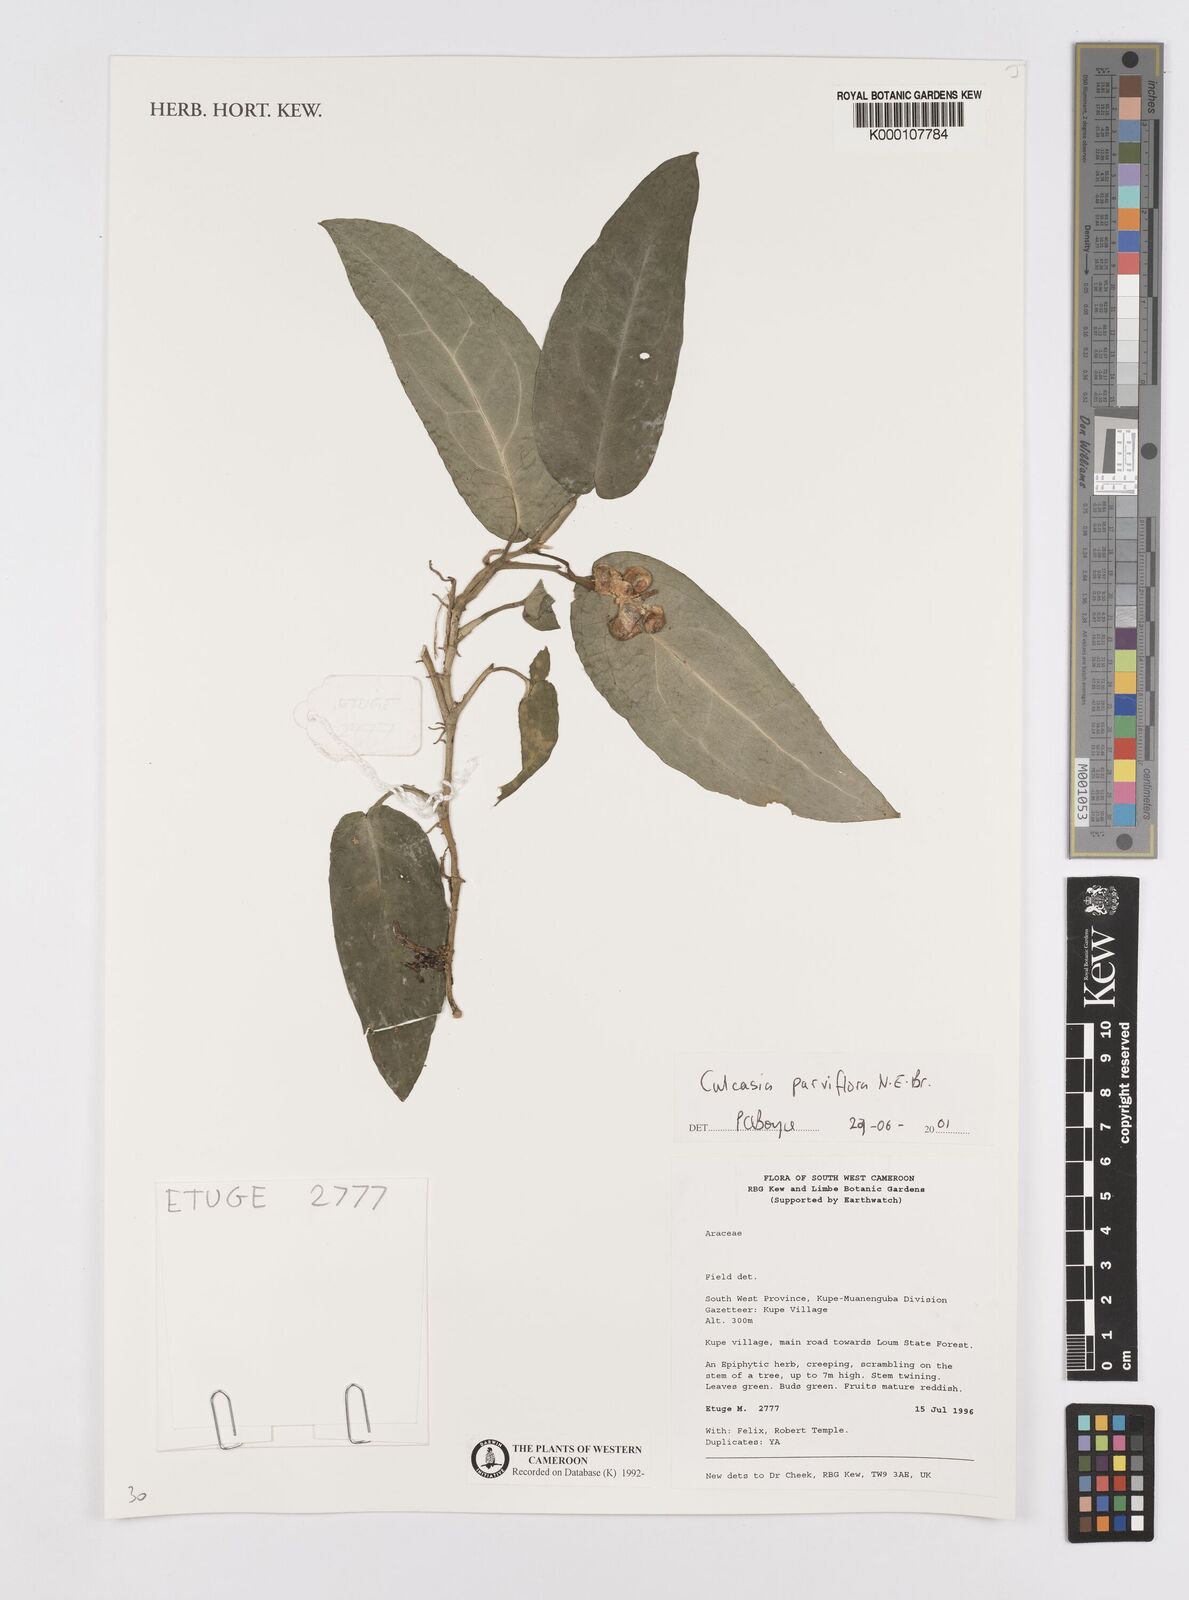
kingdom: Plantae
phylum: Tracheophyta
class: Liliopsida
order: Alismatales
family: Araceae
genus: Culcasia
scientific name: Culcasia parviflora
